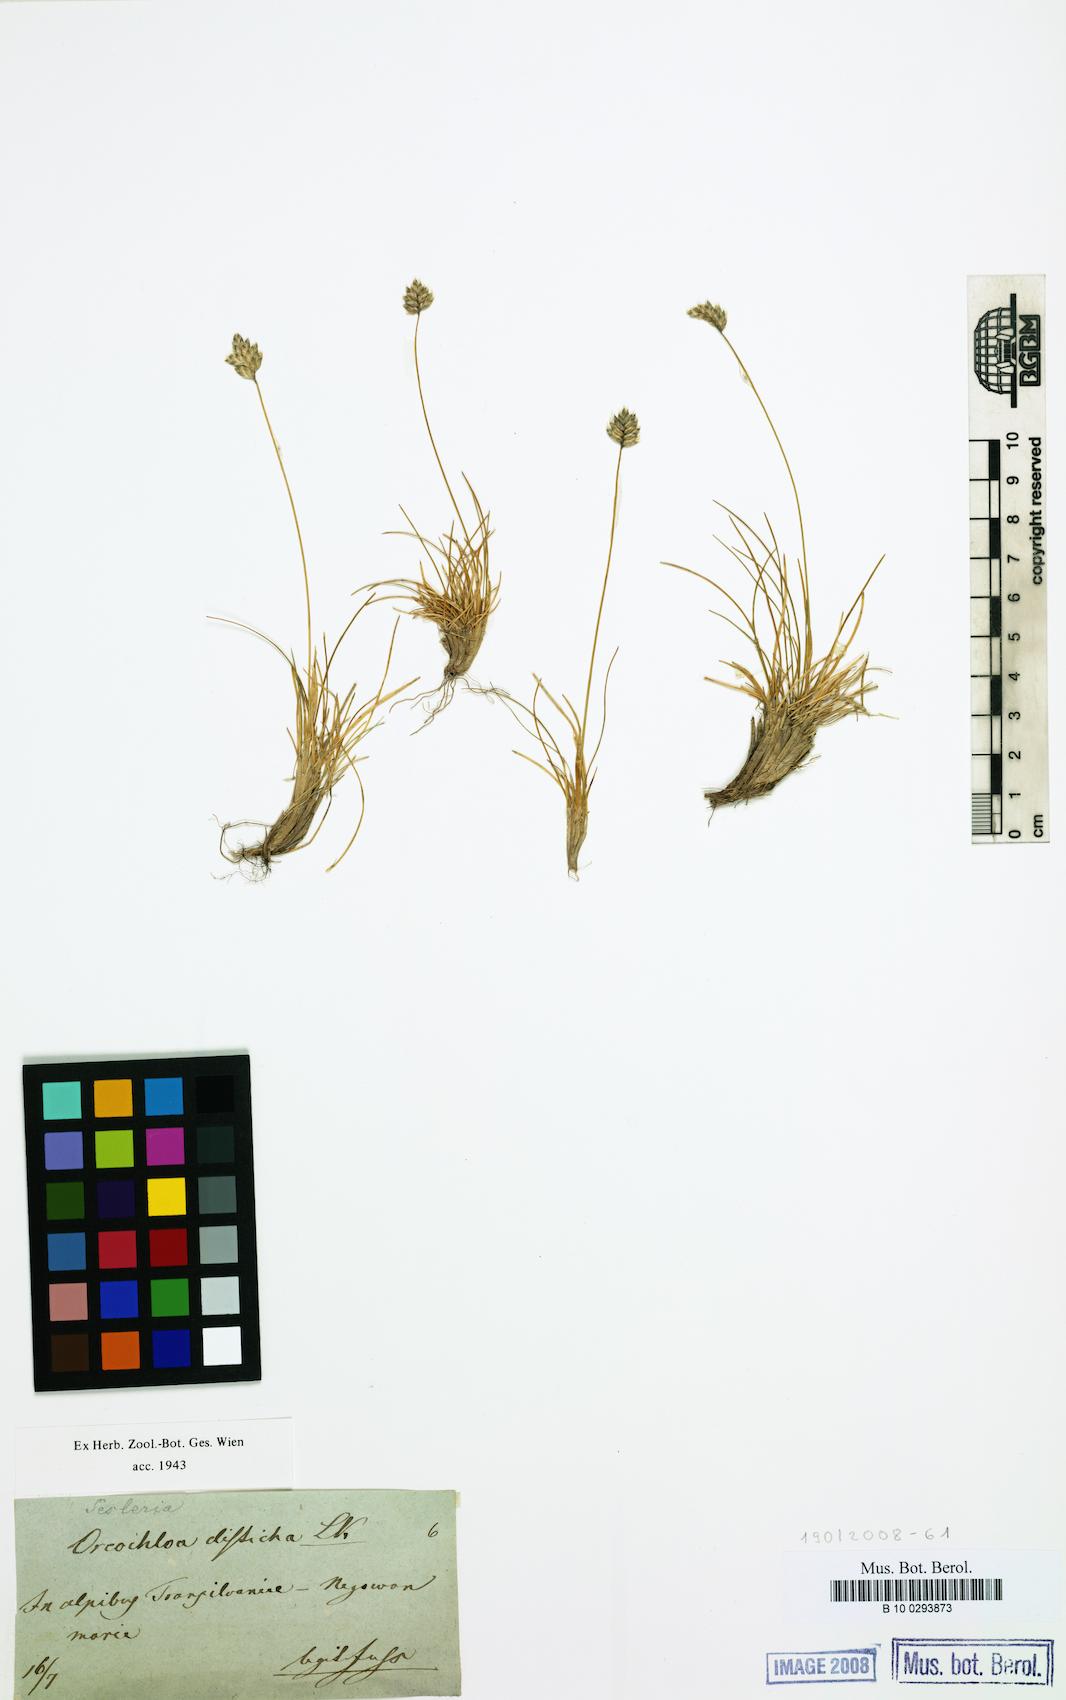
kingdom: Plantae
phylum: Tracheophyta
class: Liliopsida
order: Poales
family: Poaceae
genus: Oreochloa
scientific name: Oreochloa disticha
